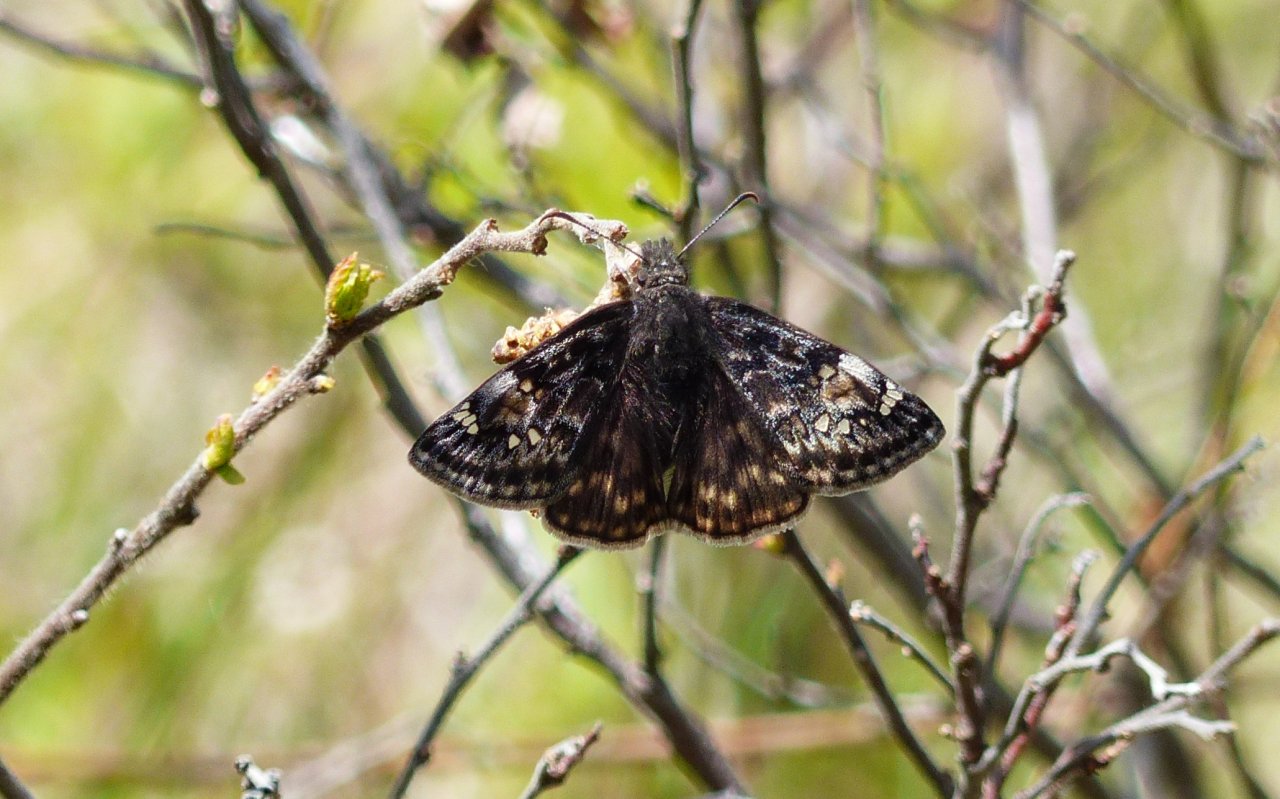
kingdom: Animalia
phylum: Arthropoda
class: Insecta
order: Lepidoptera
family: Hesperiidae
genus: Gesta
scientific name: Gesta
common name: Juvenal's Duskywing
